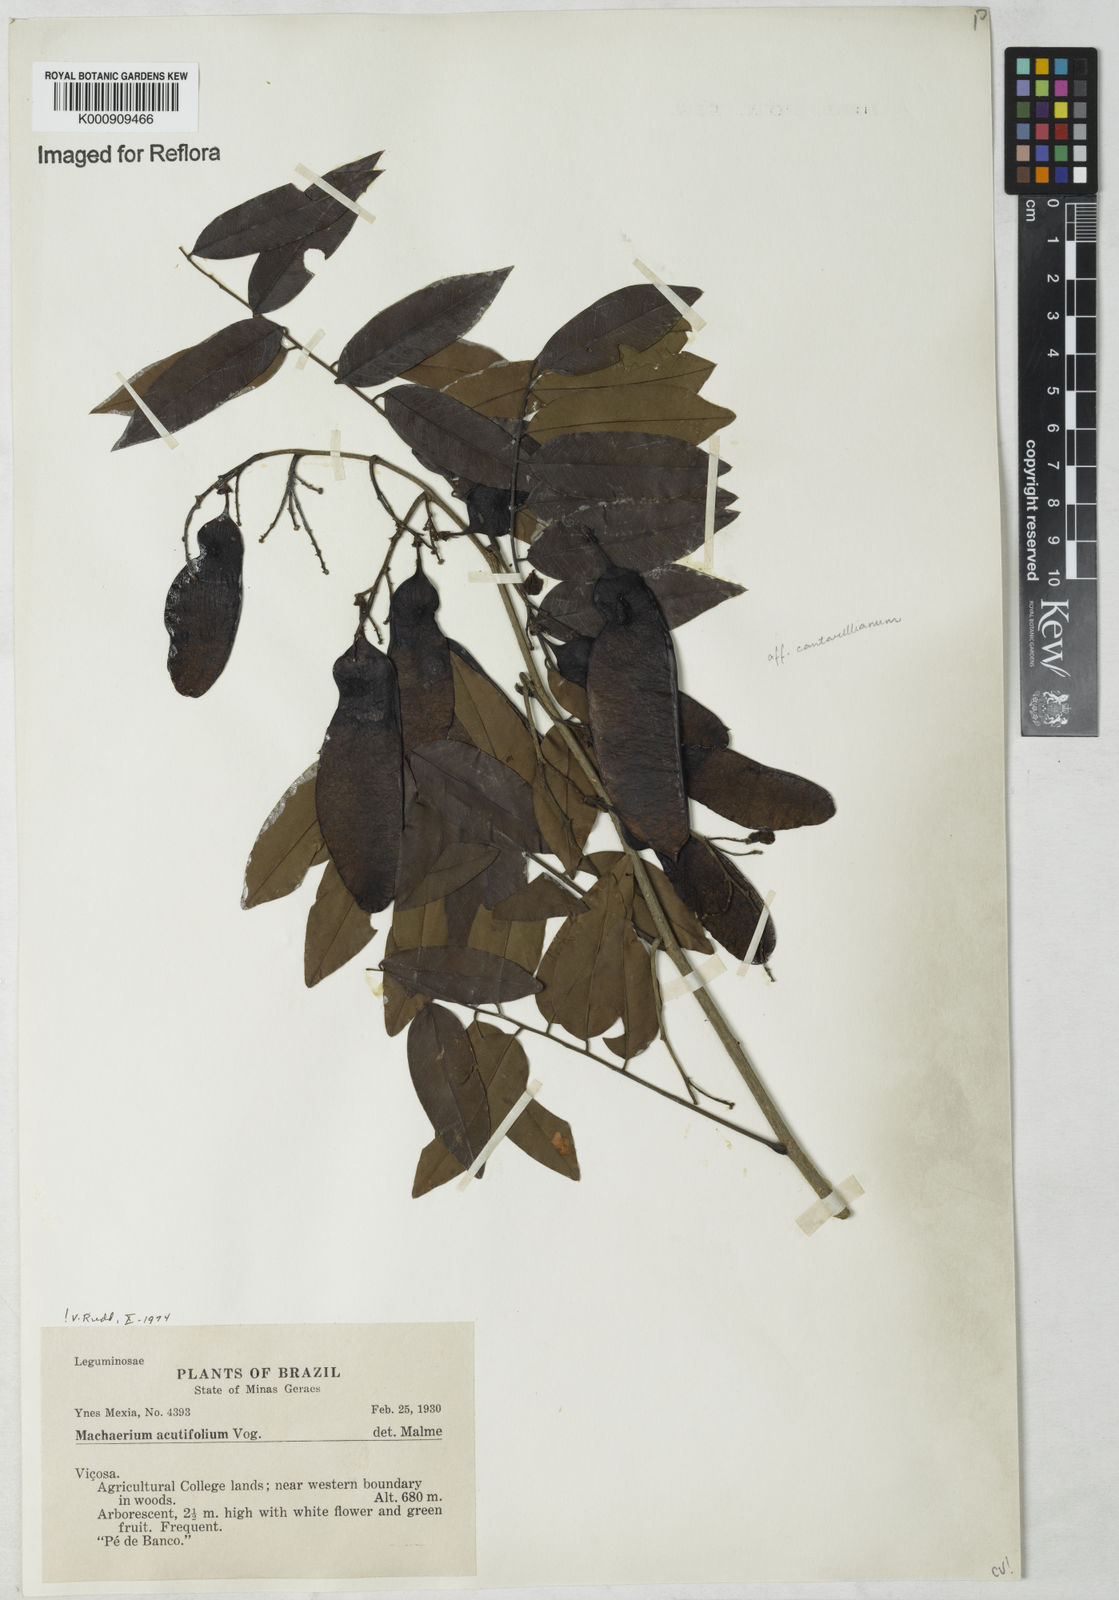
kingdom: Plantae
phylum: Tracheophyta
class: Magnoliopsida
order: Fabales
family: Fabaceae
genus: Machaerium
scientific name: Machaerium acutifolium
